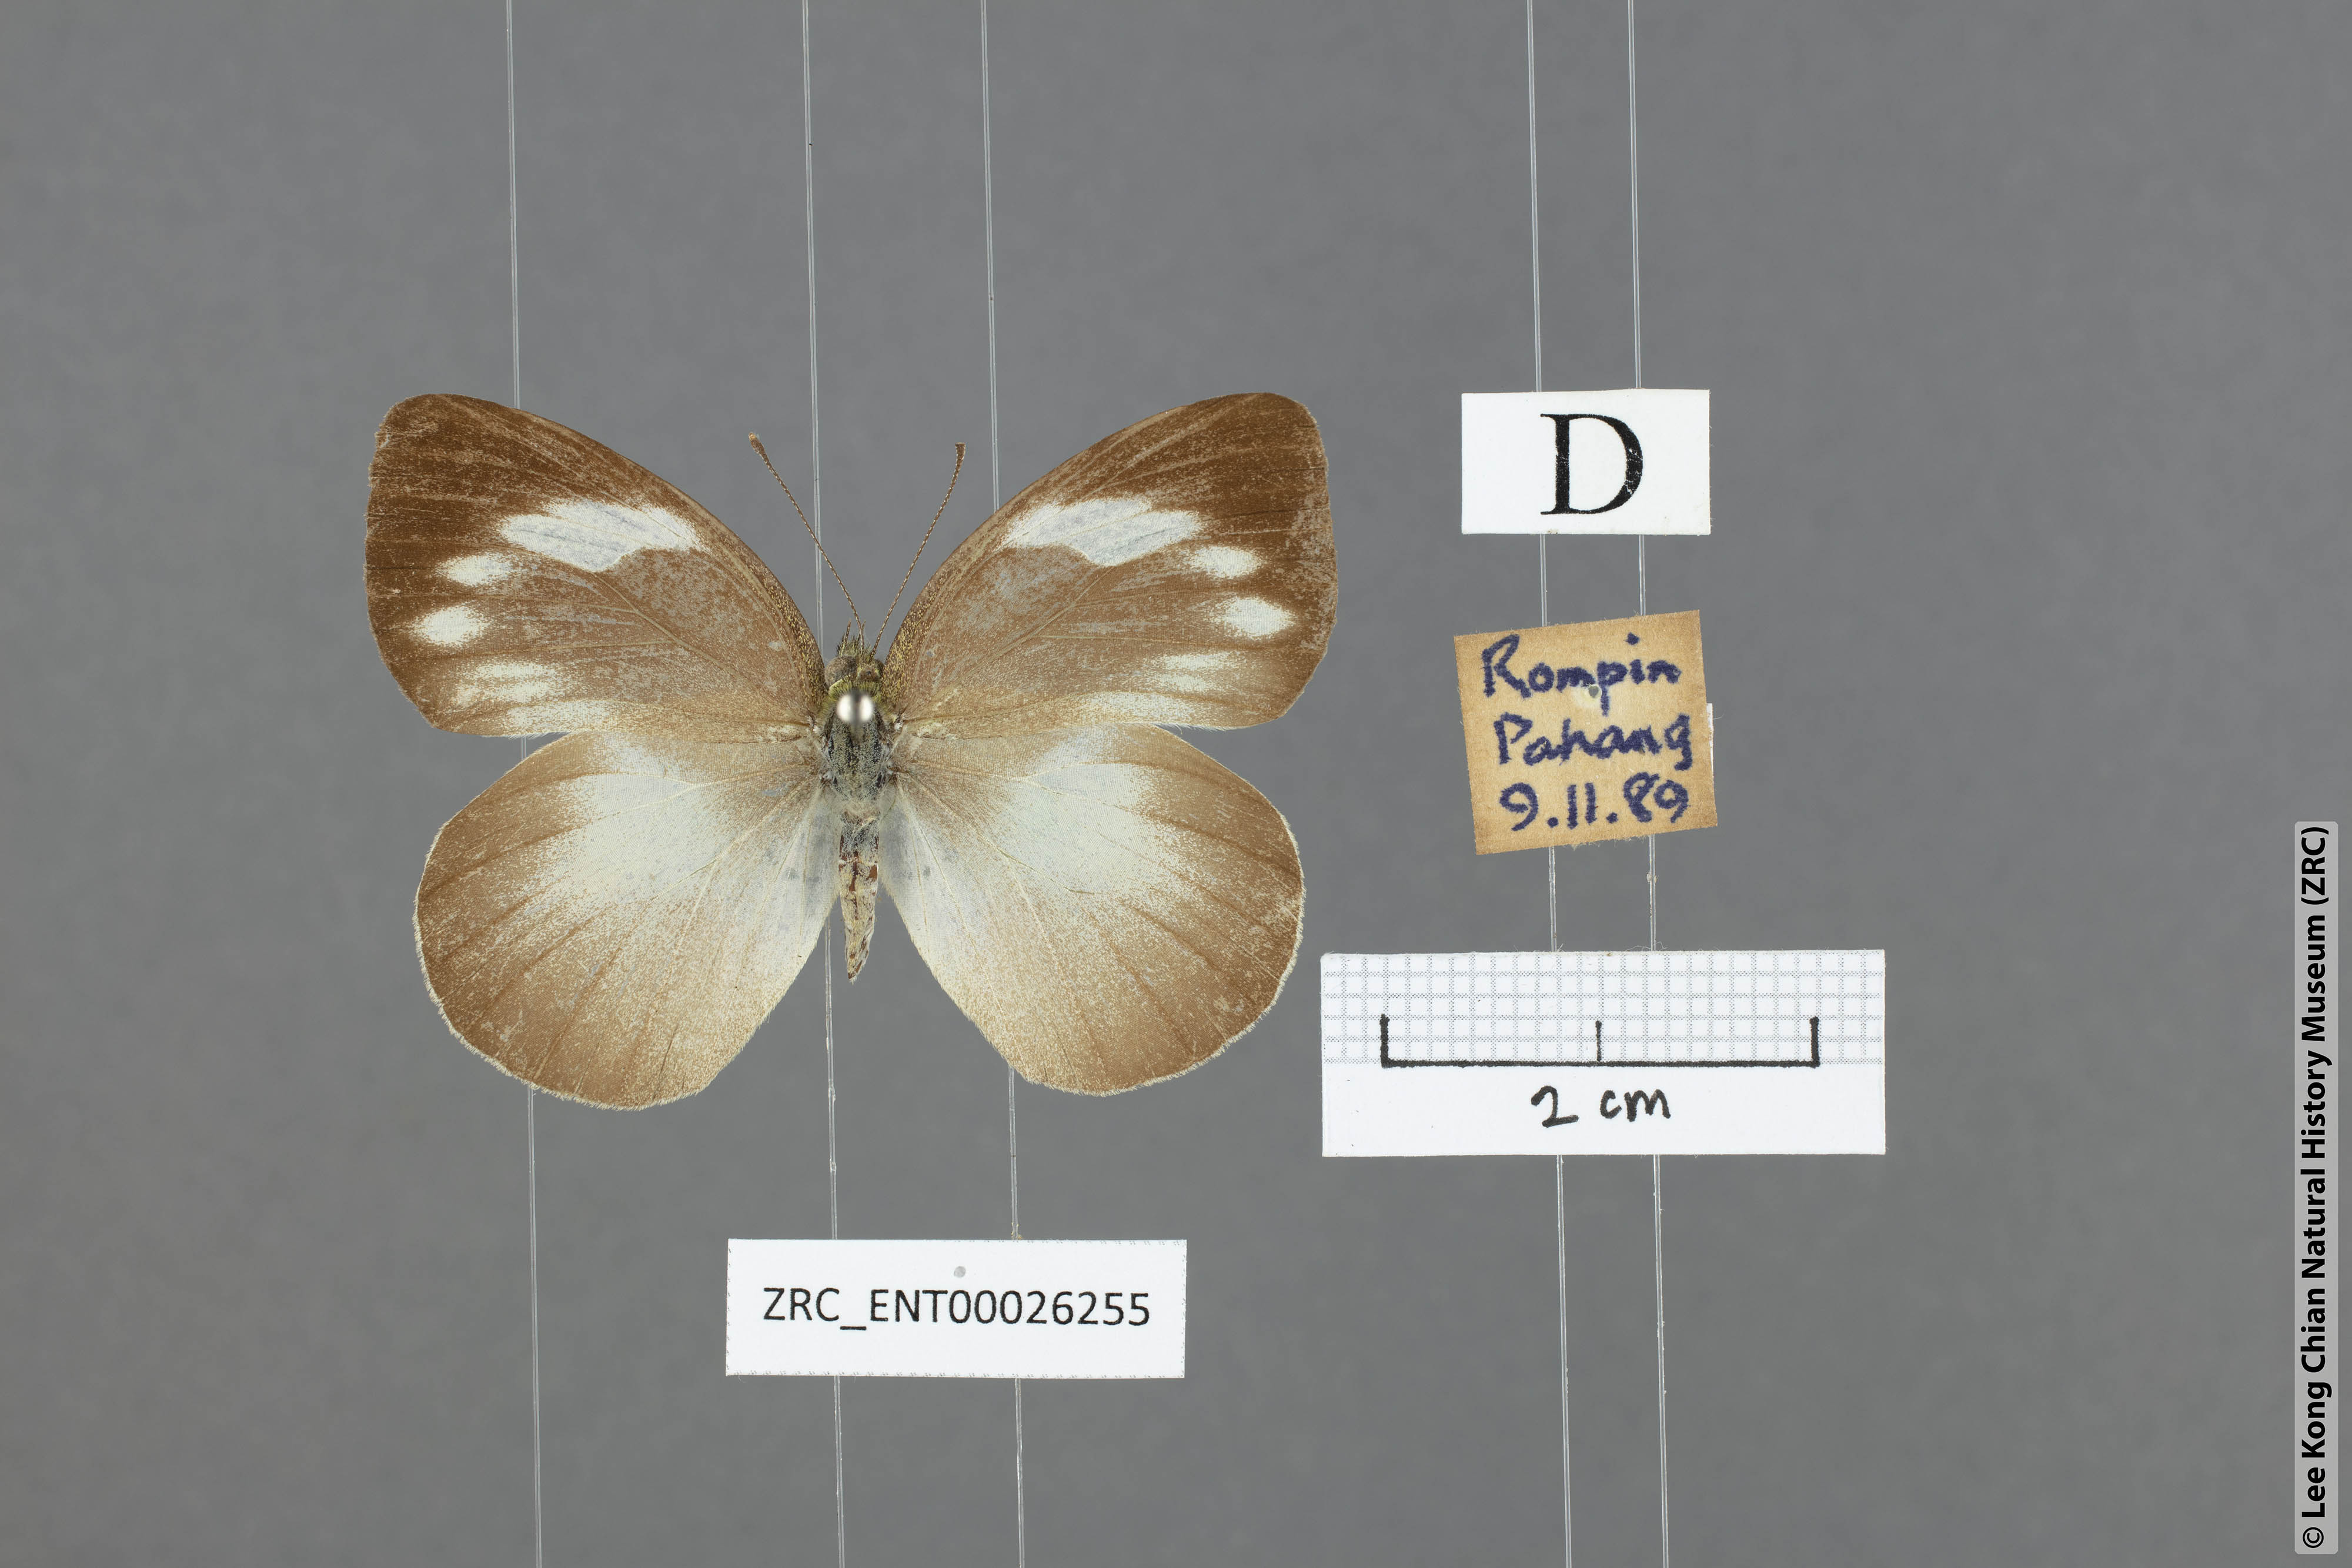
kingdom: Animalia
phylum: Arthropoda
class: Insecta
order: Lepidoptera
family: Pieridae
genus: Phrissura
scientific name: Phrissura aegis
